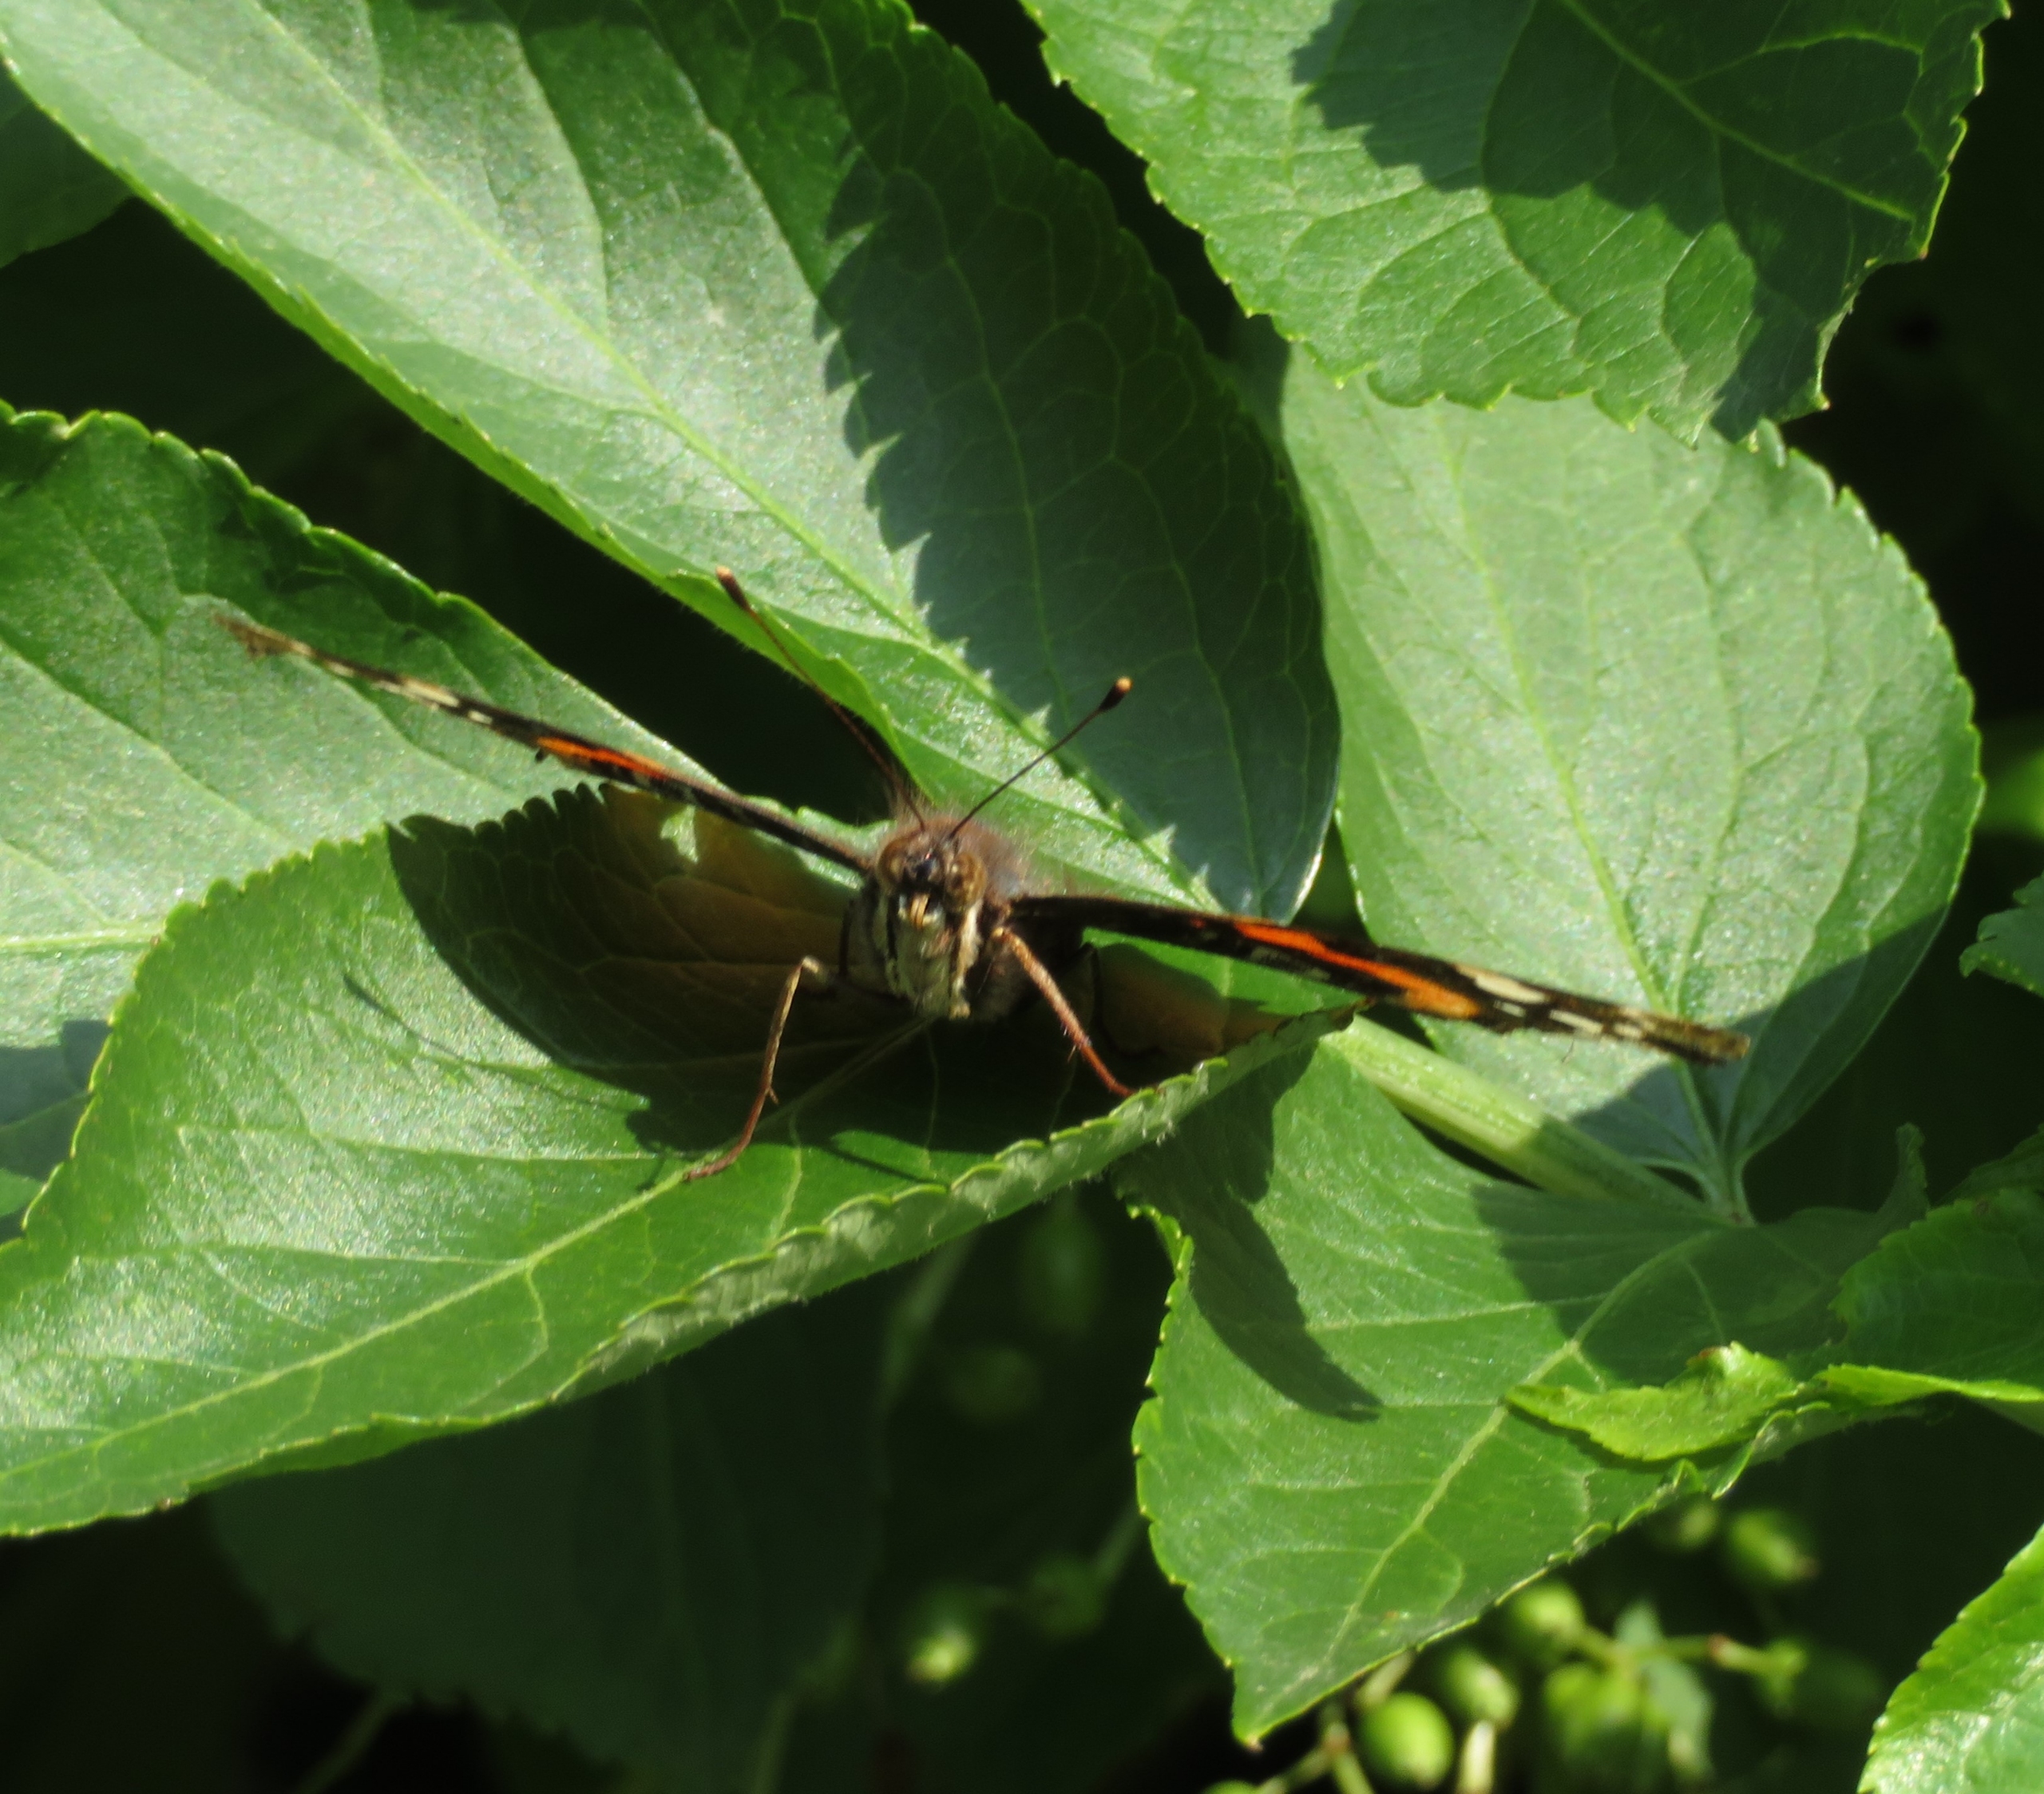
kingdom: Animalia
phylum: Arthropoda
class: Insecta
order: Lepidoptera
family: Nymphalidae
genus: Vanessa
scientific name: Vanessa atalanta
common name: Admiral
